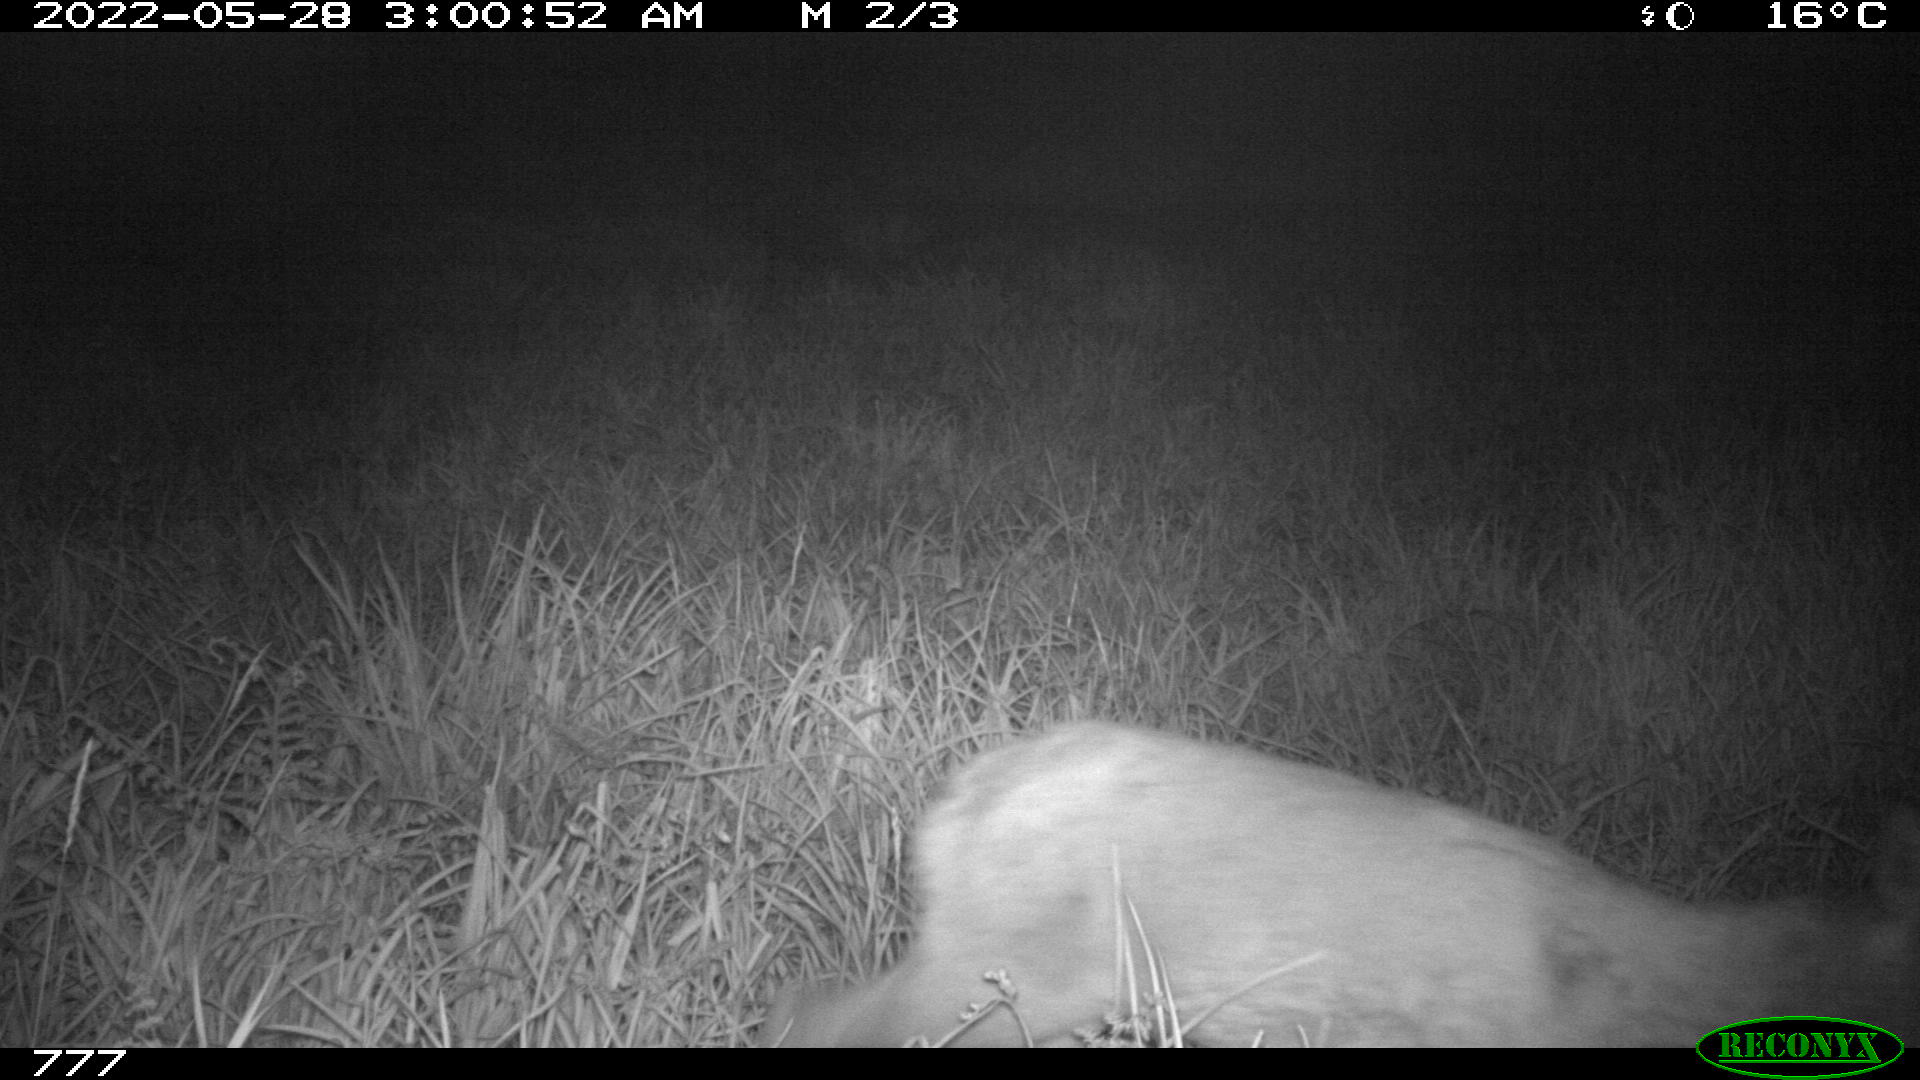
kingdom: Animalia
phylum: Chordata
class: Mammalia
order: Artiodactyla
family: Cervidae
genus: Capreolus
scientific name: Capreolus capreolus
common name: Western roe deer
